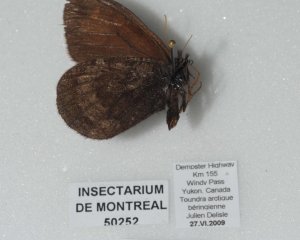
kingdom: Animalia
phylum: Arthropoda
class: Insecta
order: Lepidoptera
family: Nymphalidae
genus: Erebia
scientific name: Erebia rossii
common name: Ross's Alpine
